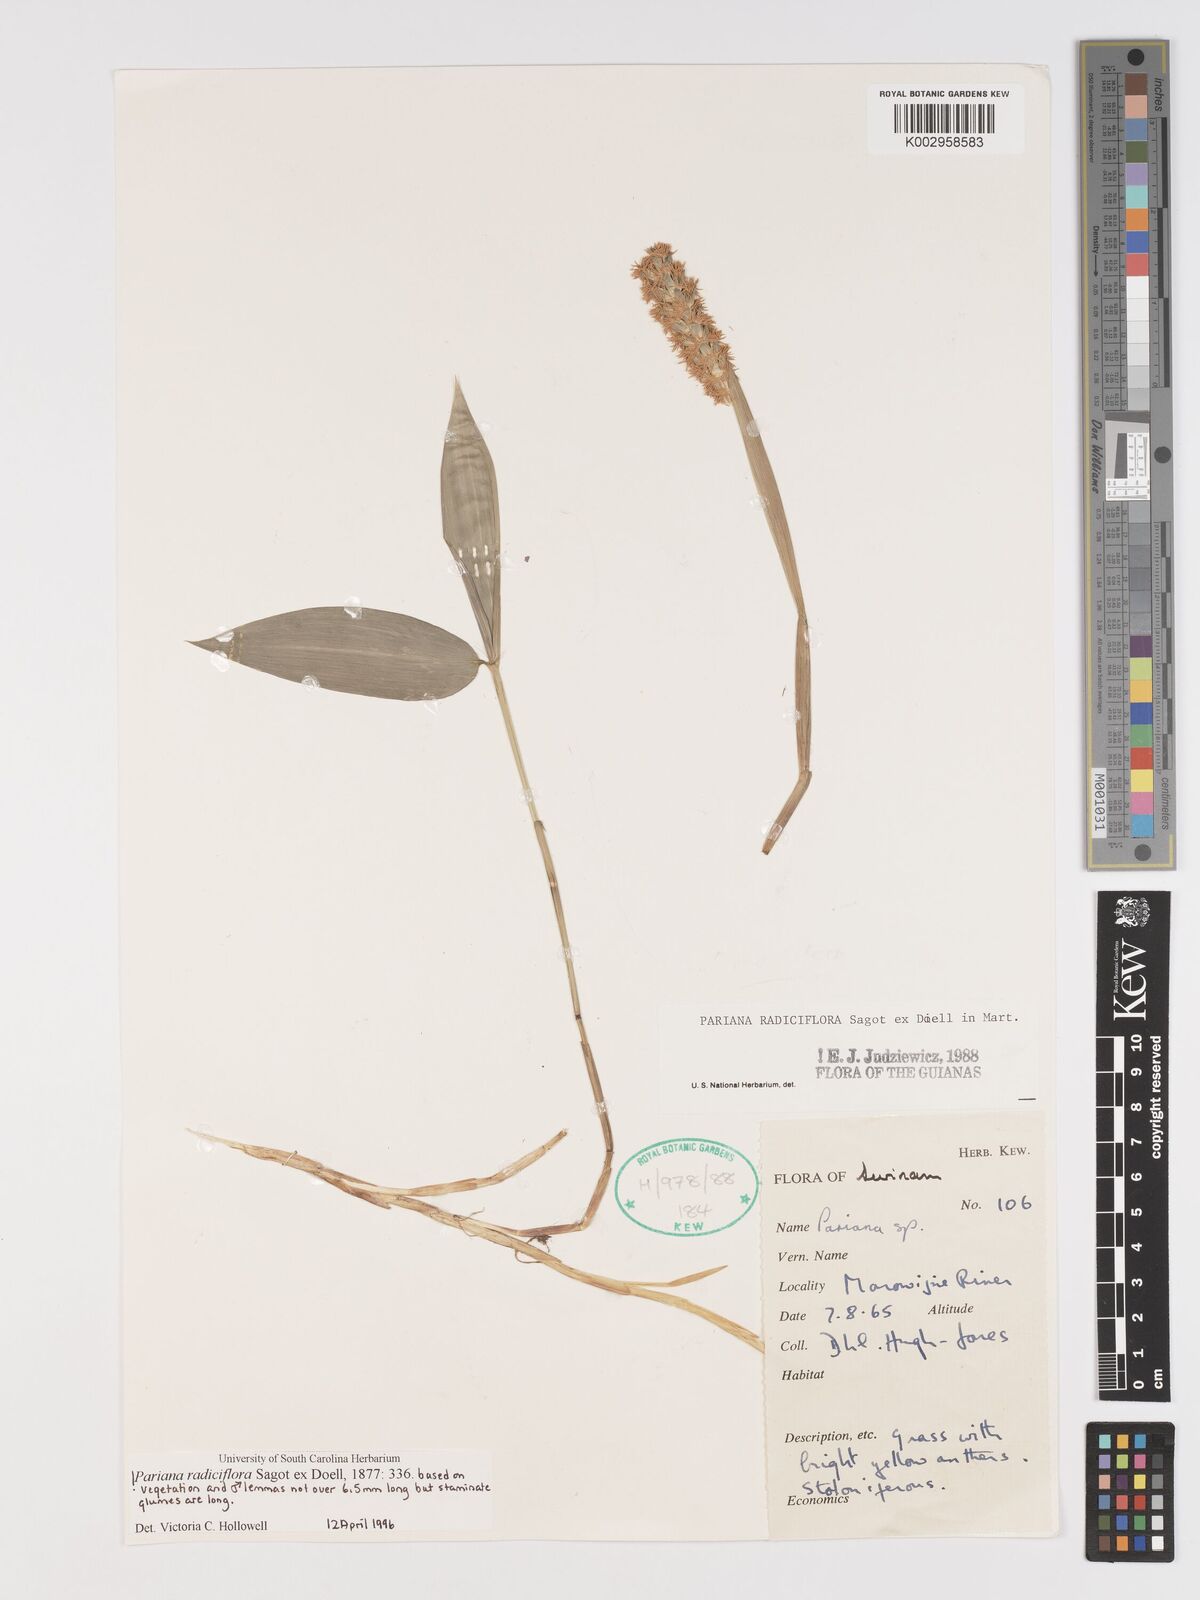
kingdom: Plantae
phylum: Tracheophyta
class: Liliopsida
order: Poales
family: Poaceae
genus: Pariana
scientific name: Pariana radiciflora
